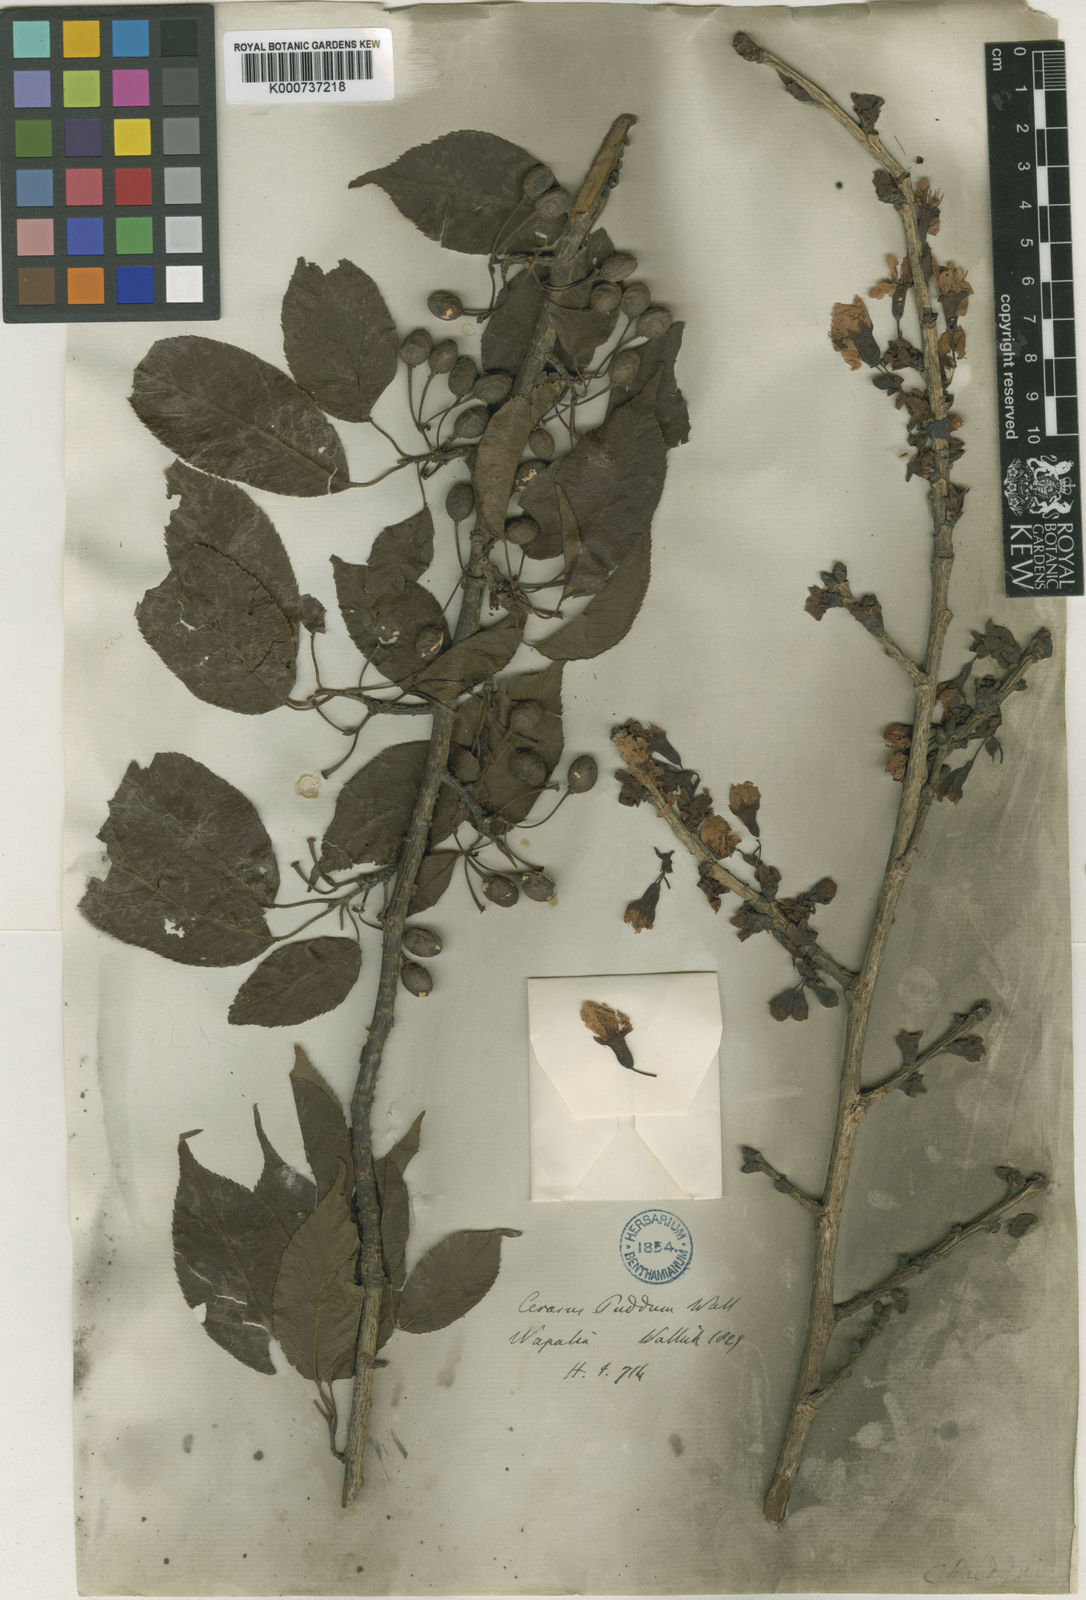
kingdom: Plantae
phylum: Tracheophyta
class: Magnoliopsida
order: Rosales
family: Rosaceae
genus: Prunus
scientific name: Prunus cerasoides
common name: Wild himalayan cherry
